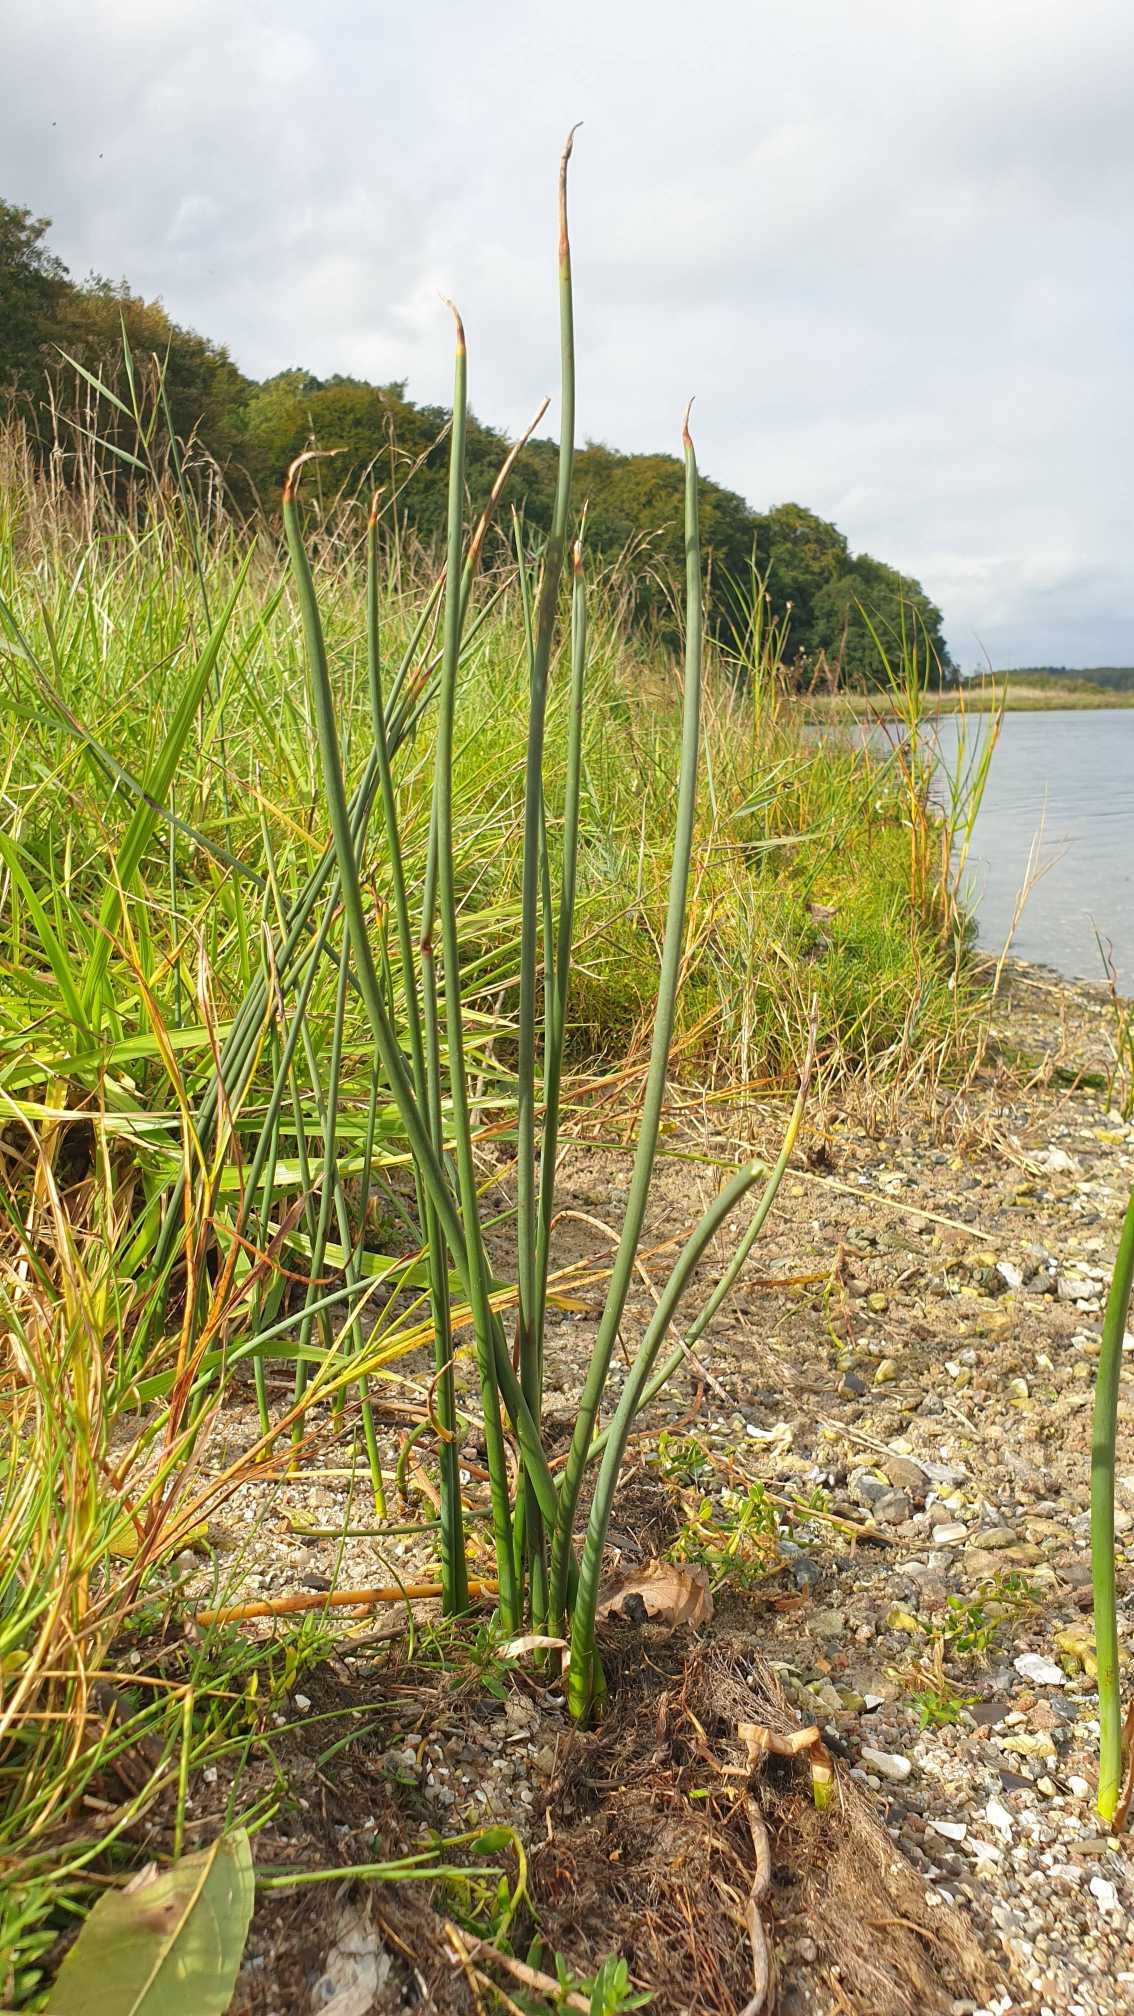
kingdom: Plantae
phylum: Tracheophyta
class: Liliopsida
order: Poales
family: Cyperaceae
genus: Schoenoplectus
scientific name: Schoenoplectus
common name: Kogleaks (Schoenoplectus-slægten)
